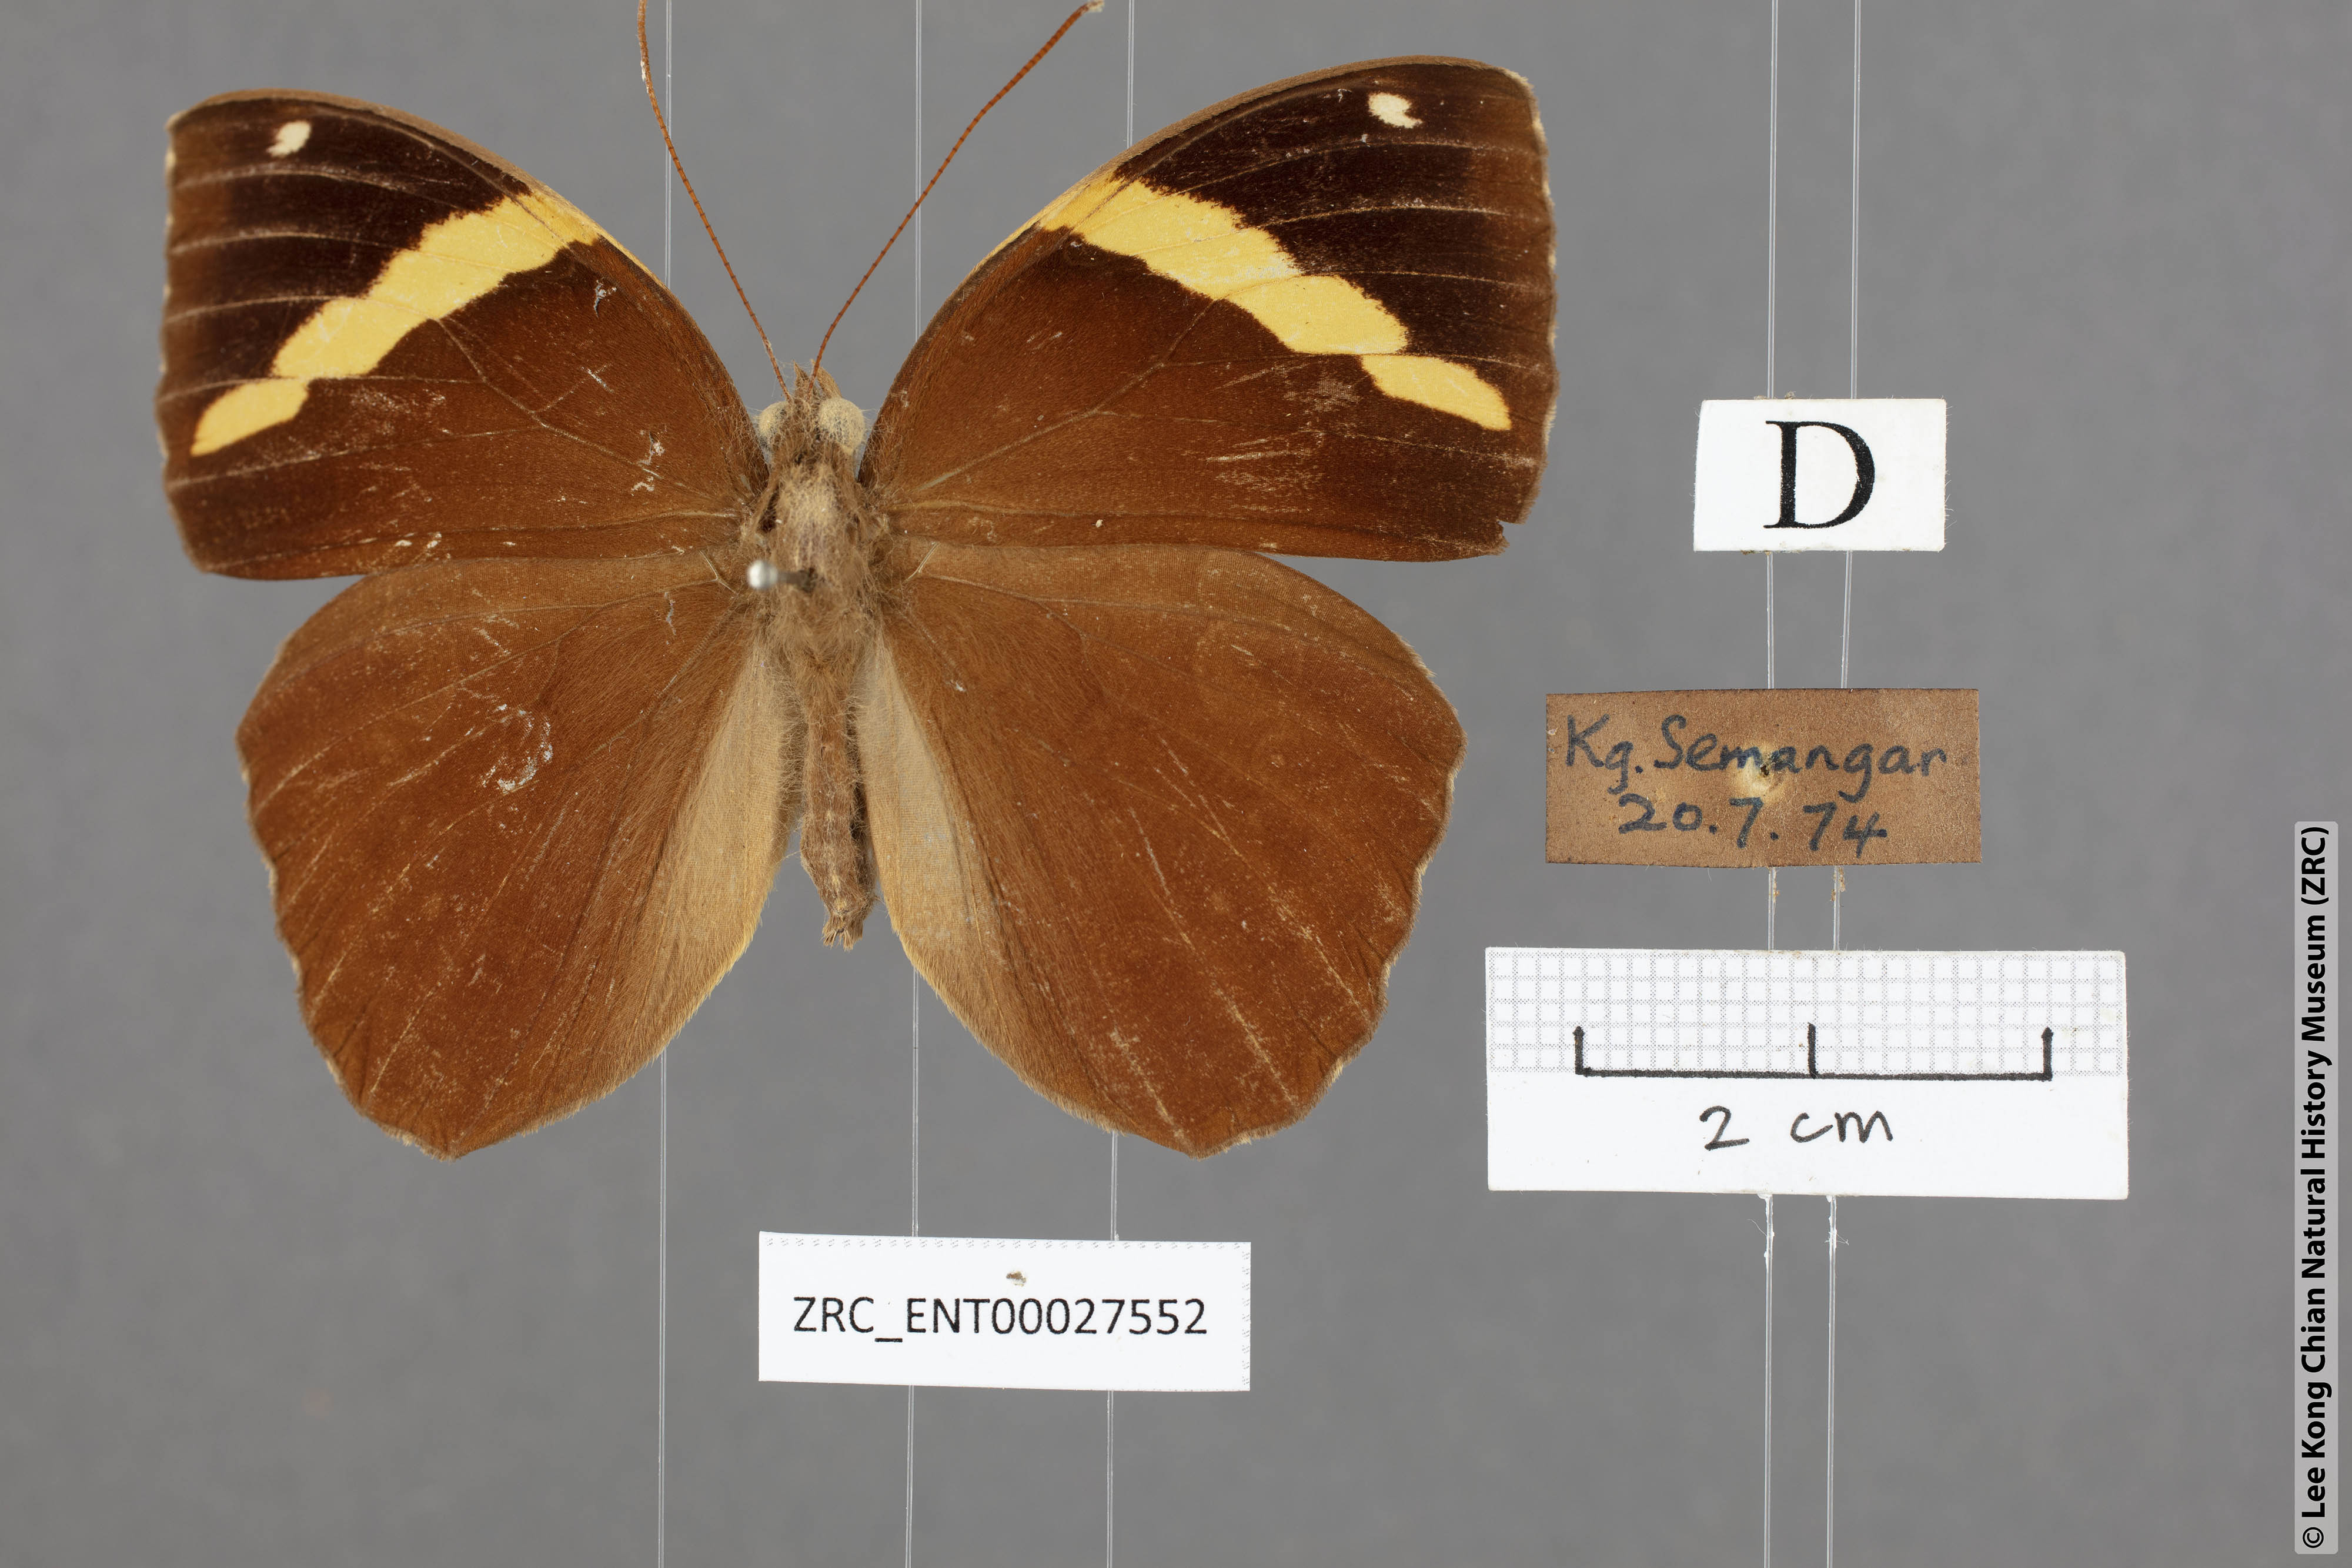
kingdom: Animalia
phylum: Arthropoda
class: Insecta
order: Lepidoptera
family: Nymphalidae
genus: Xanthotaenia
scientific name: Xanthotaenia busiris
